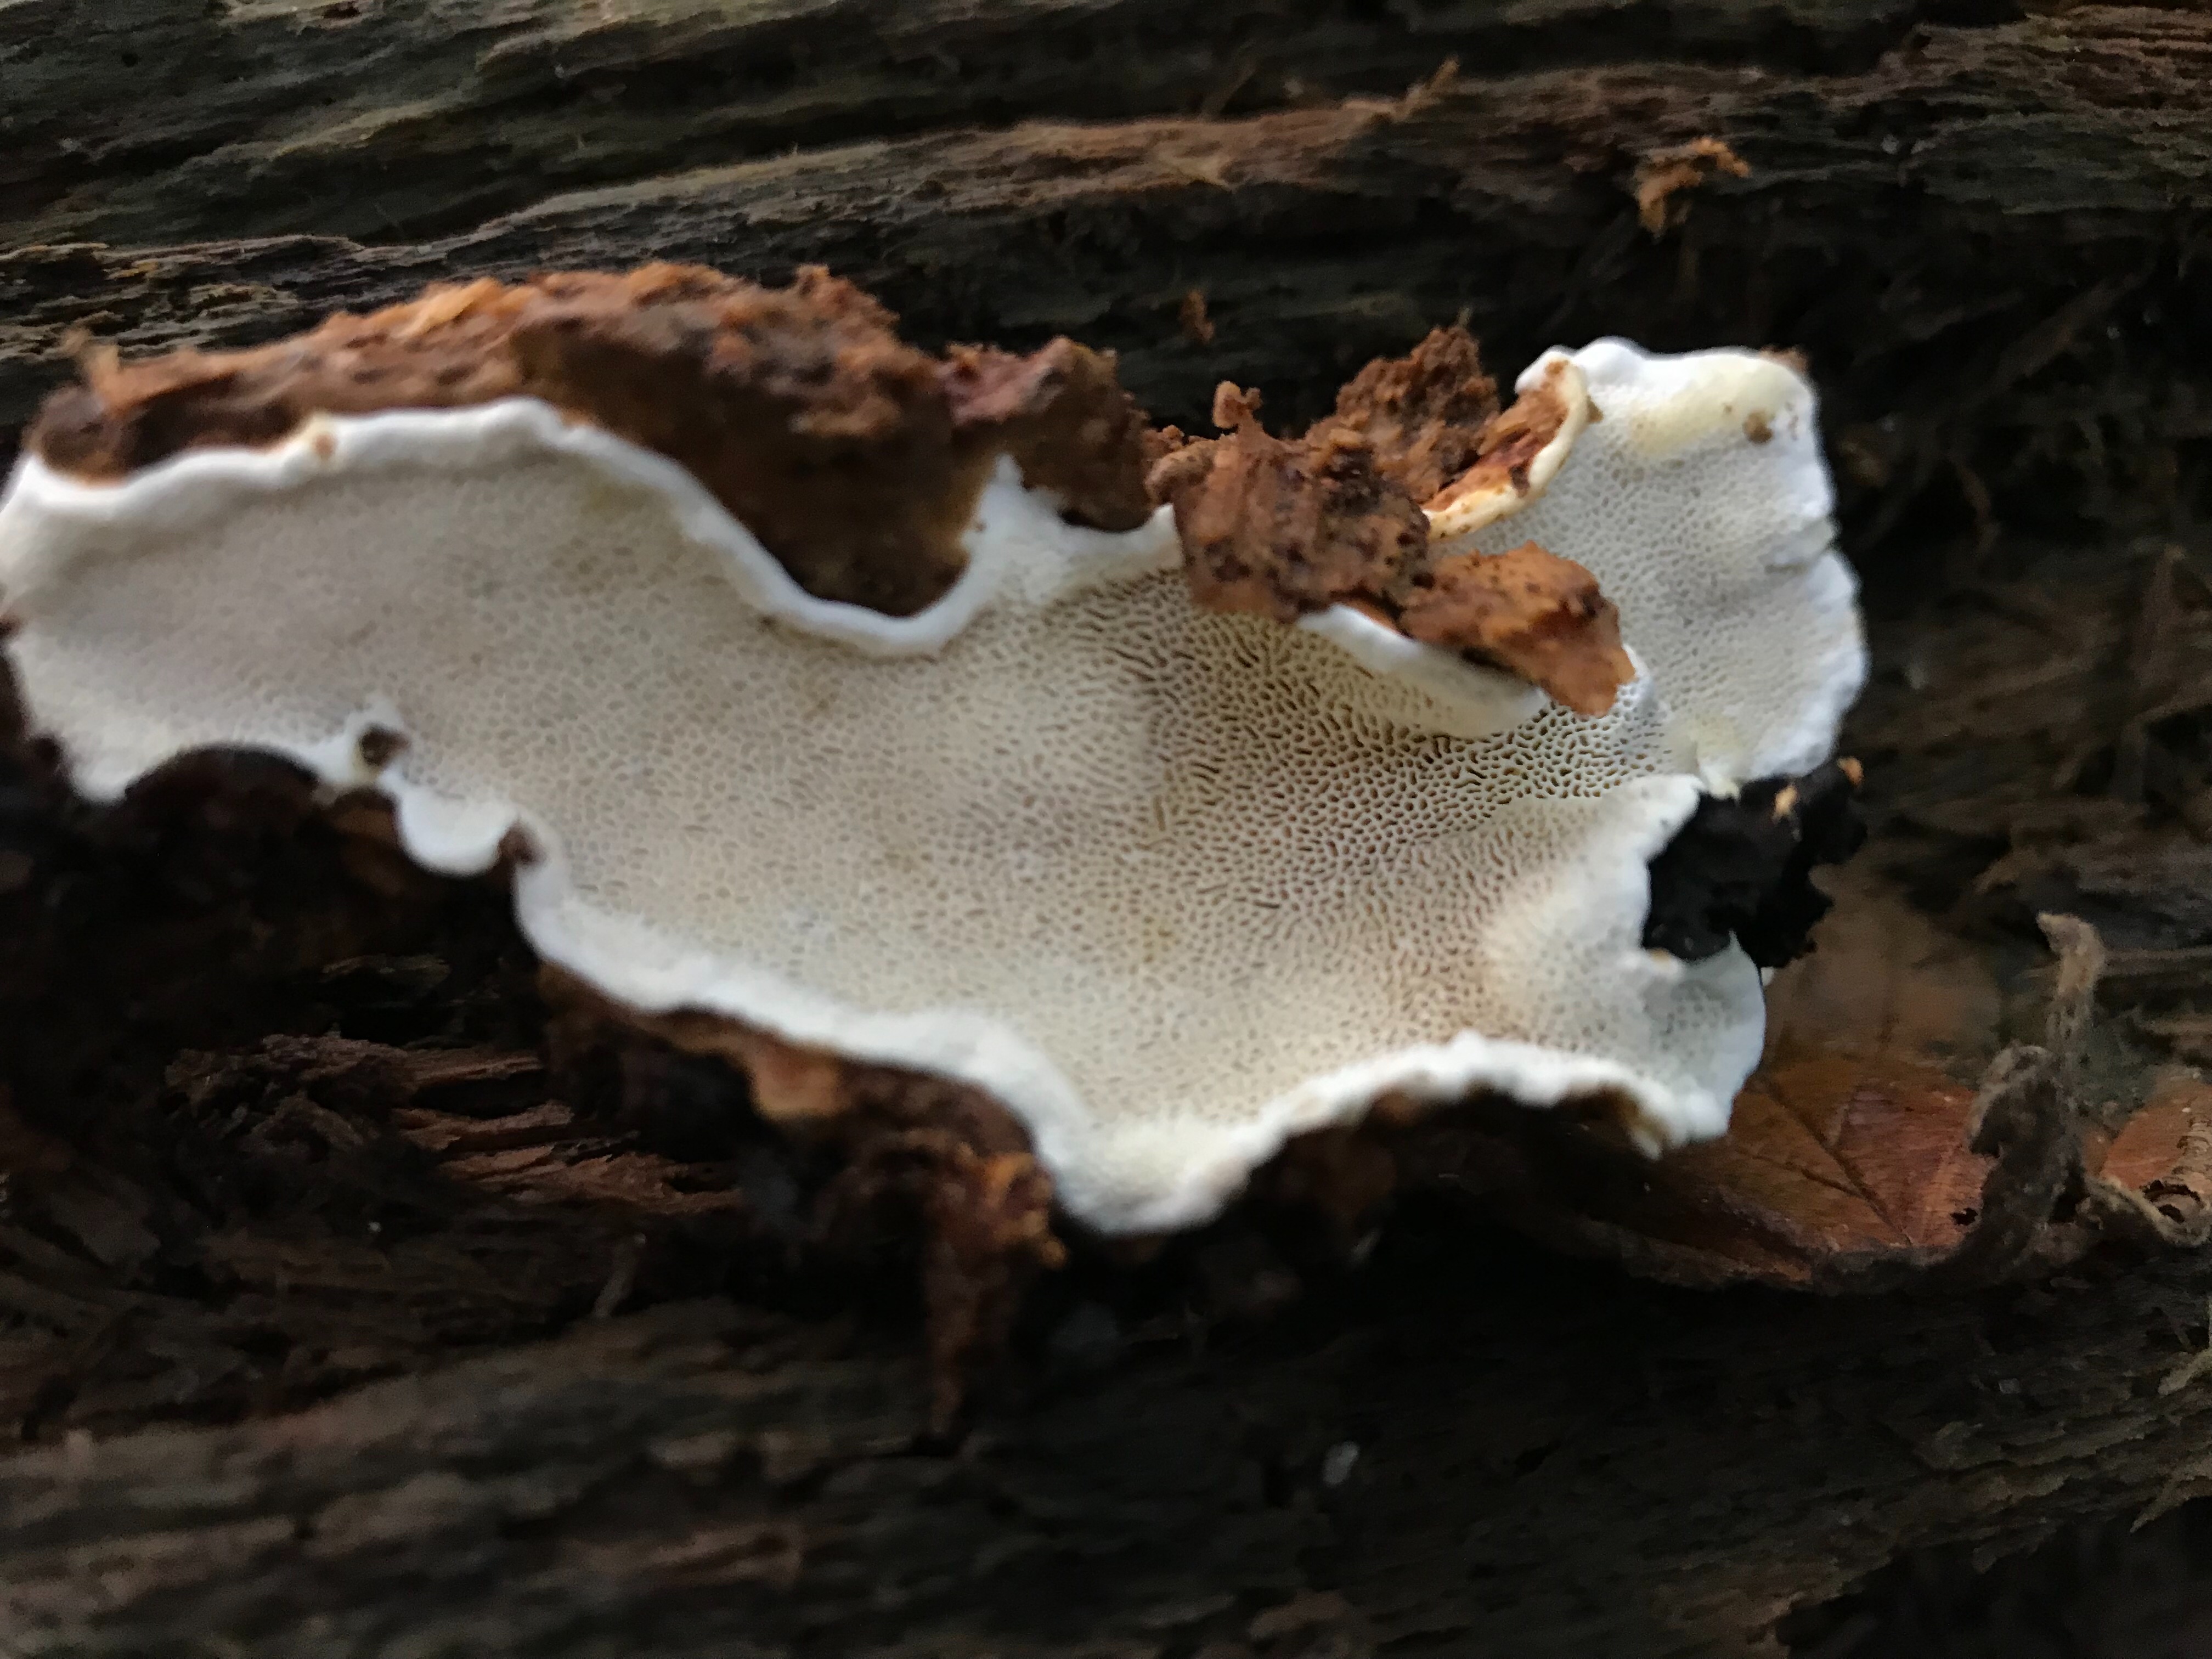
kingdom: Fungi
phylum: Basidiomycota
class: Agaricomycetes
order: Russulales
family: Bondarzewiaceae
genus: Heterobasidion
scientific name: Heterobasidion annosum
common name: almindelig rodfordærver
